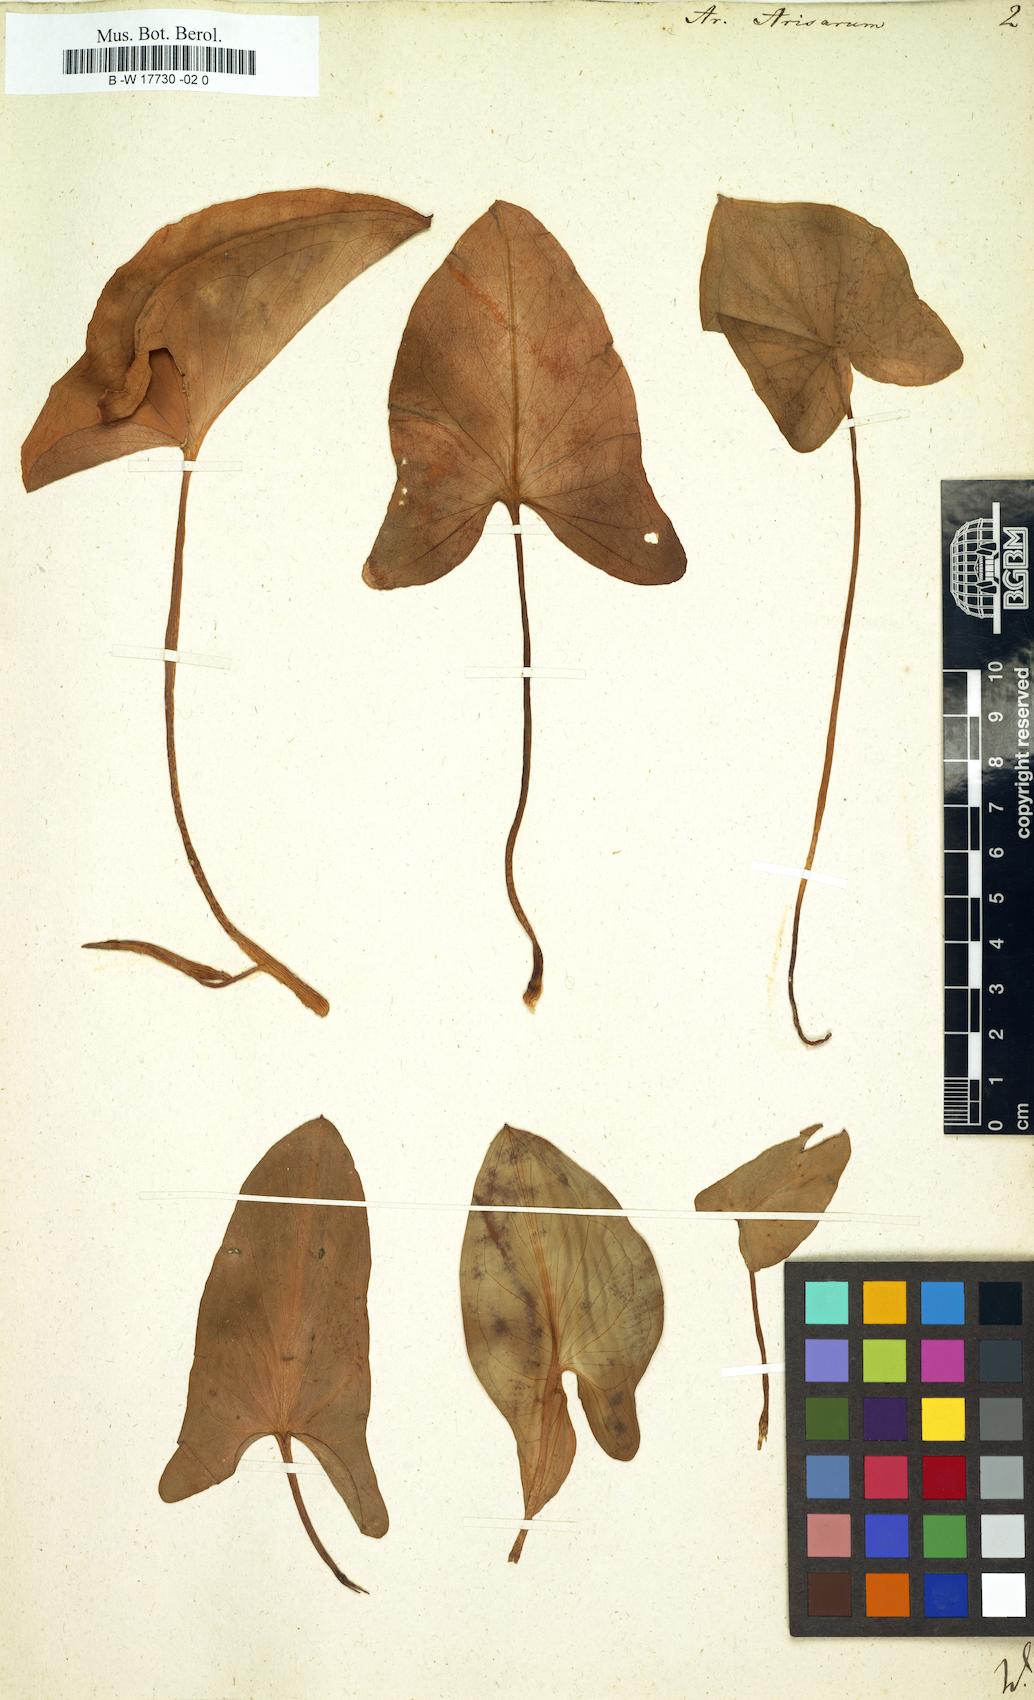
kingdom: Plantae
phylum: Tracheophyta
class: Liliopsida
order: Alismatales
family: Araceae
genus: Arisarum
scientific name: Arisarum vulgare
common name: Common arisarum
